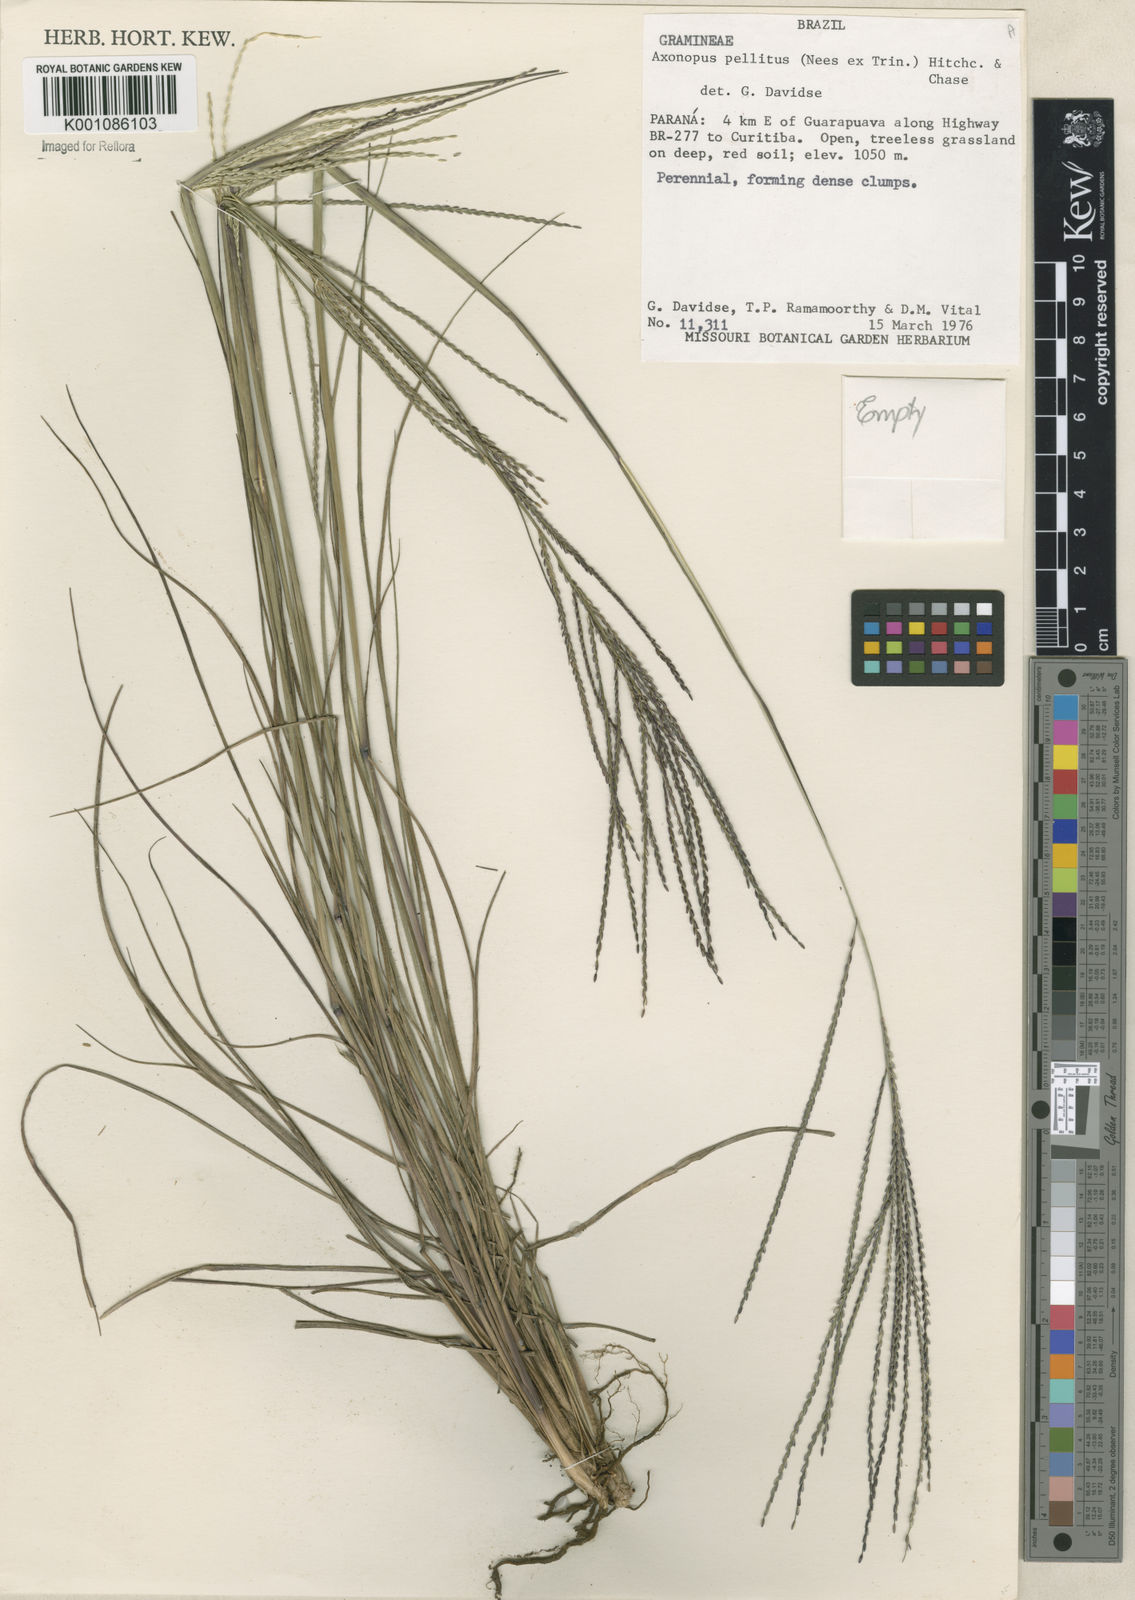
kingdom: Plantae
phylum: Tracheophyta
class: Liliopsida
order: Poales
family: Poaceae
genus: Axonopus
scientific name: Axonopus siccus
